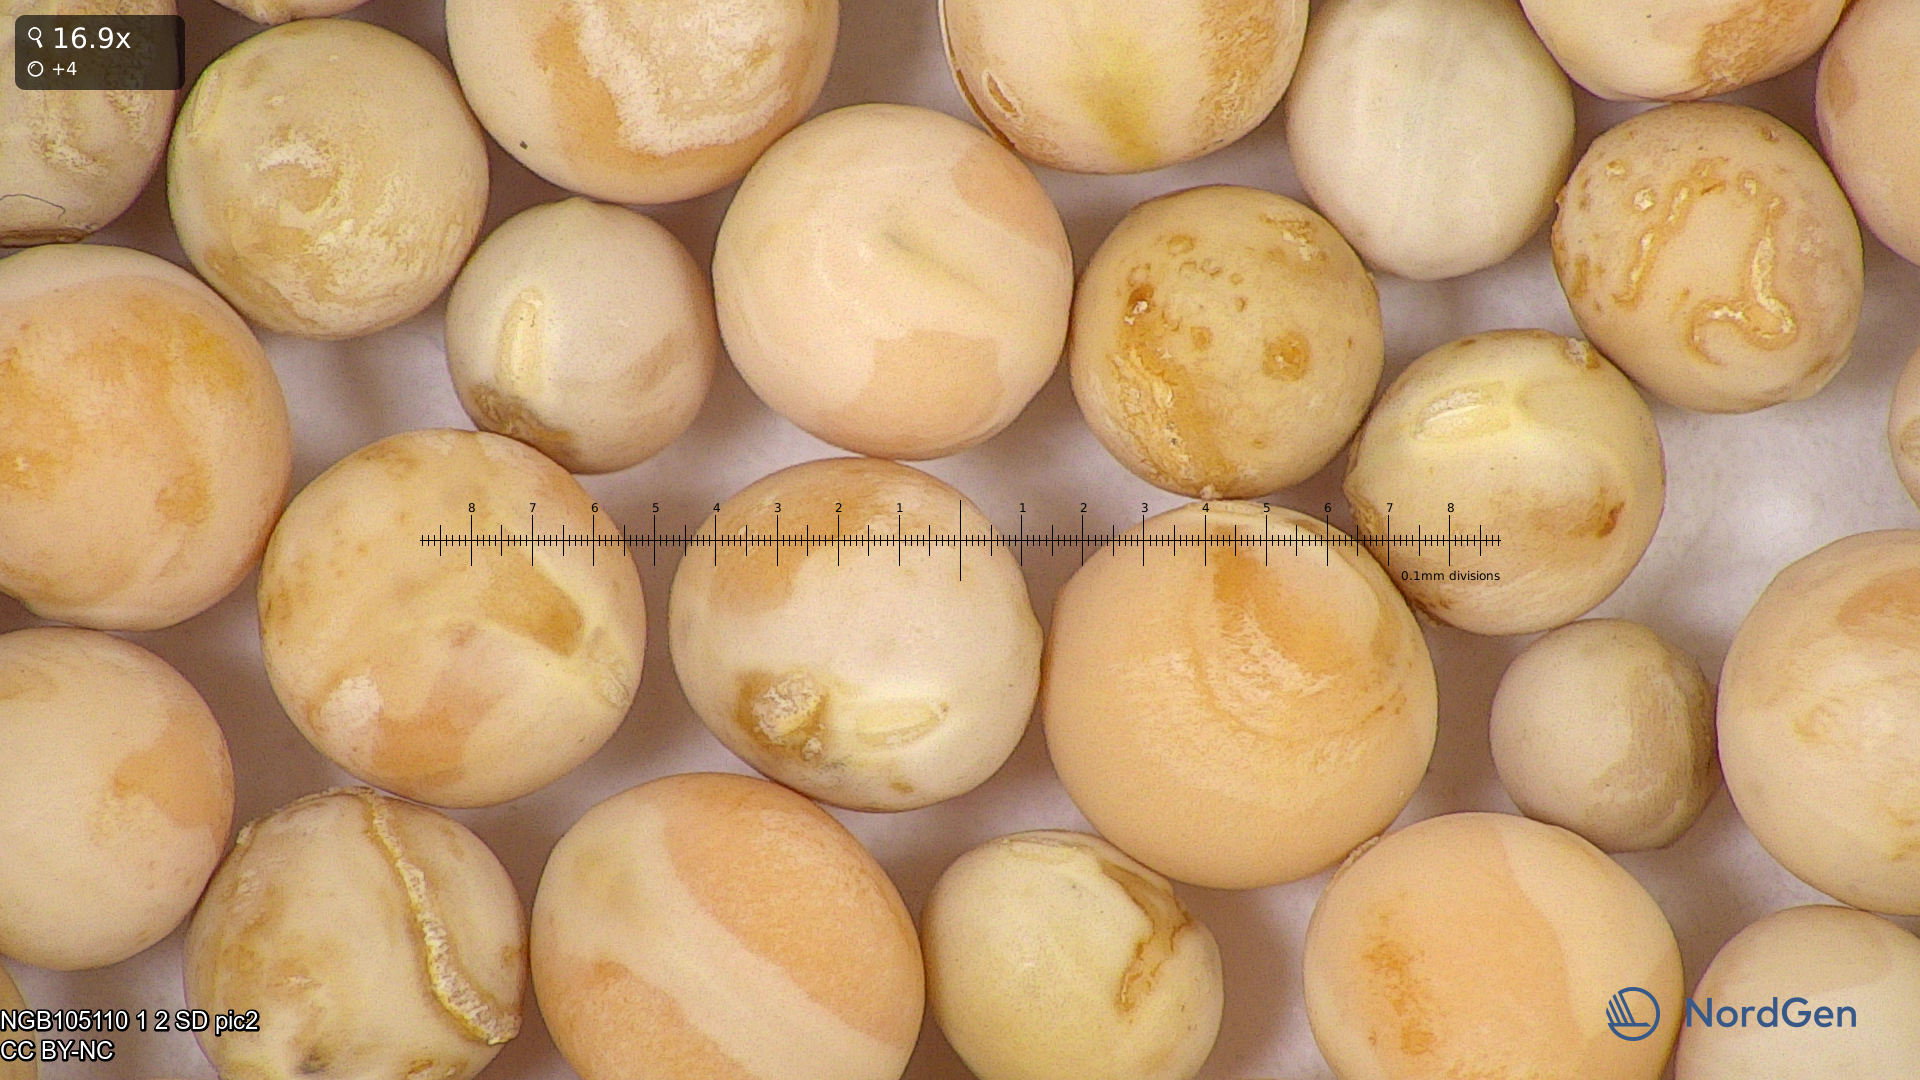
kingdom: Plantae
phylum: Tracheophyta
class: Magnoliopsida
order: Fabales
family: Fabaceae
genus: Lathyrus
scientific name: Lathyrus oleraceus
